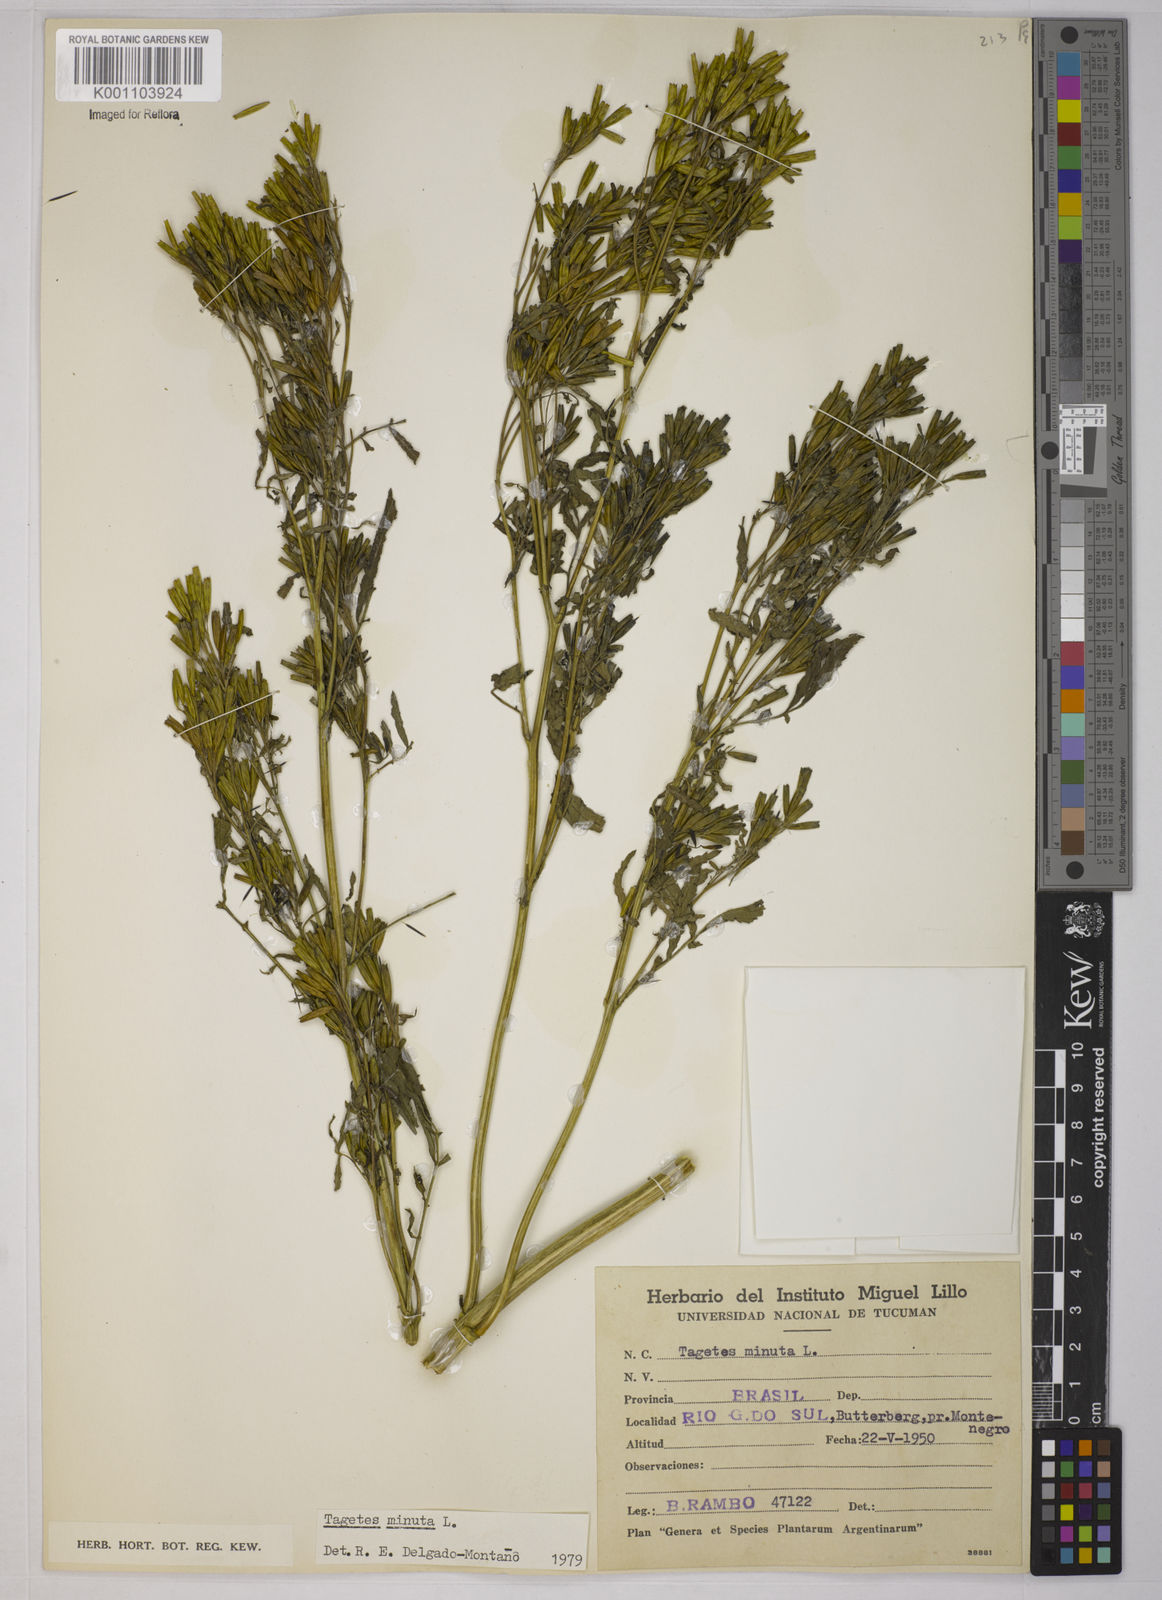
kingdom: Plantae
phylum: Tracheophyta
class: Magnoliopsida
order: Asterales
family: Asteraceae
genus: Tagetes
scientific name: Tagetes minuta
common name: Muster john henry
